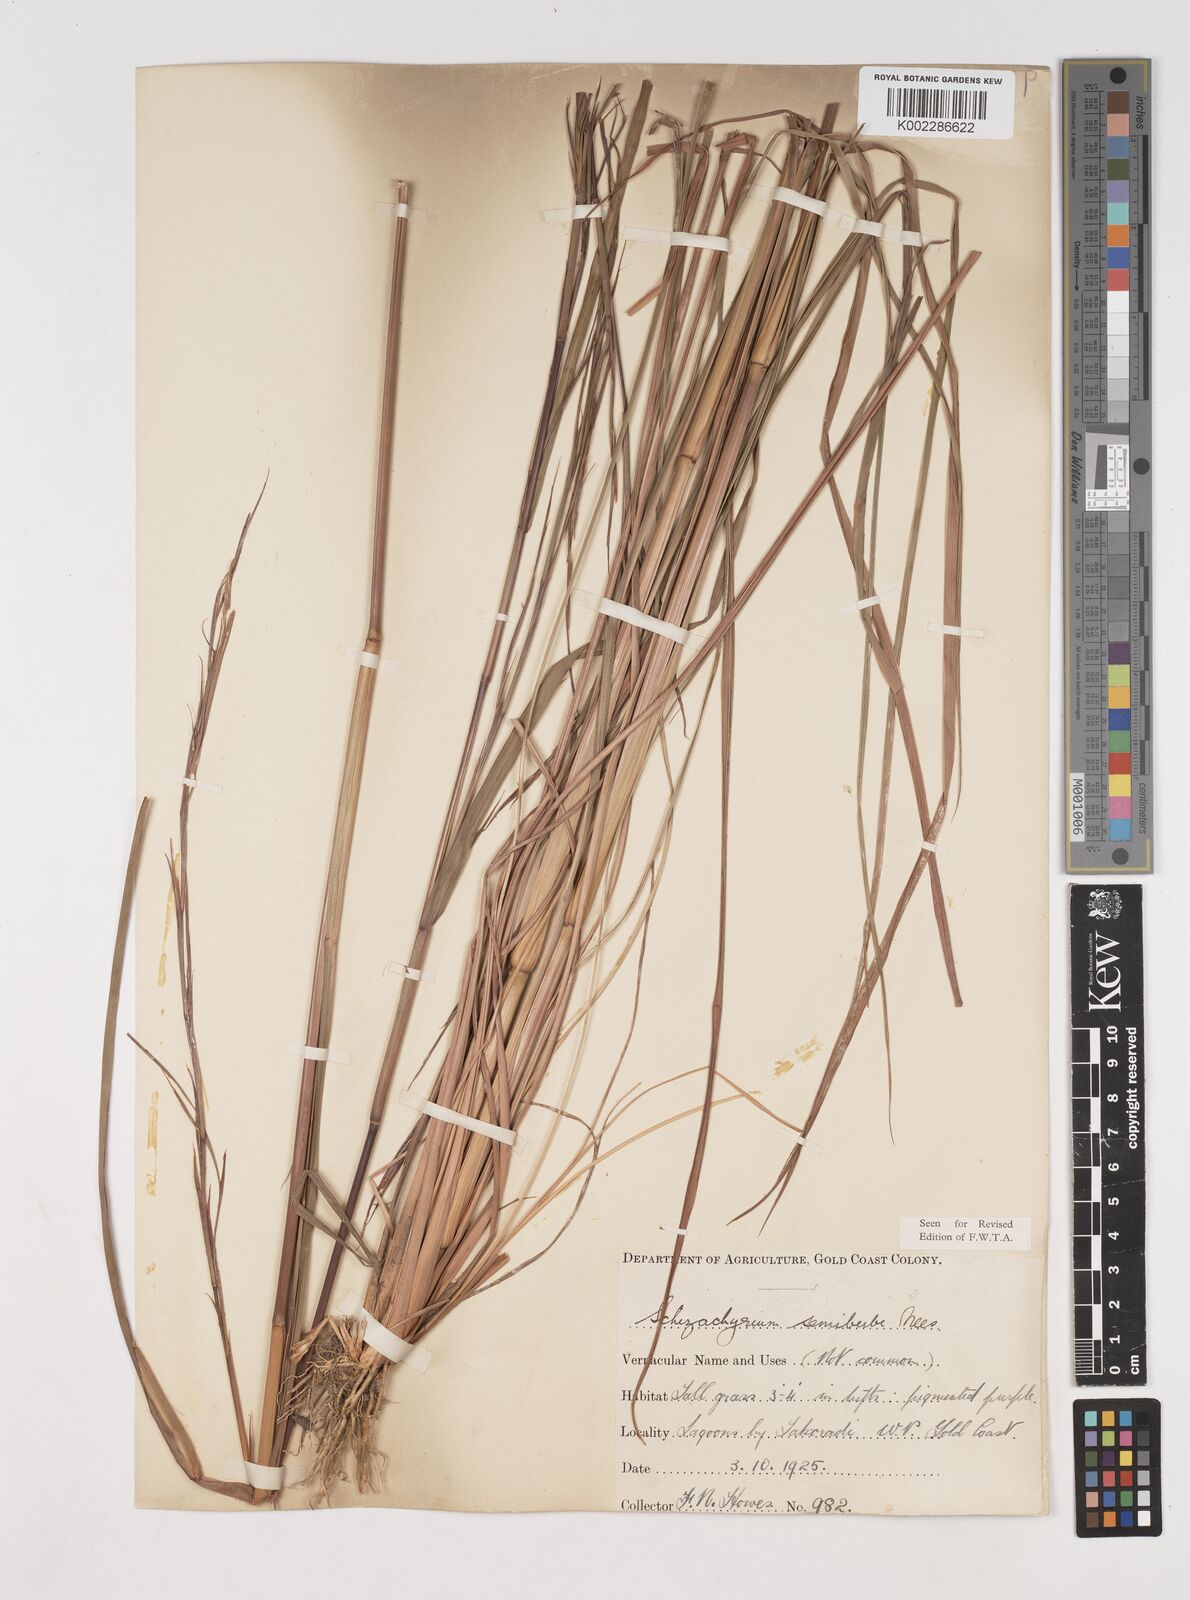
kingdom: Plantae
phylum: Tracheophyta
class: Liliopsida
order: Poales
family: Poaceae
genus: Schizachyrium
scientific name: Schizachyrium sanguineum
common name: Crimson bluestem
